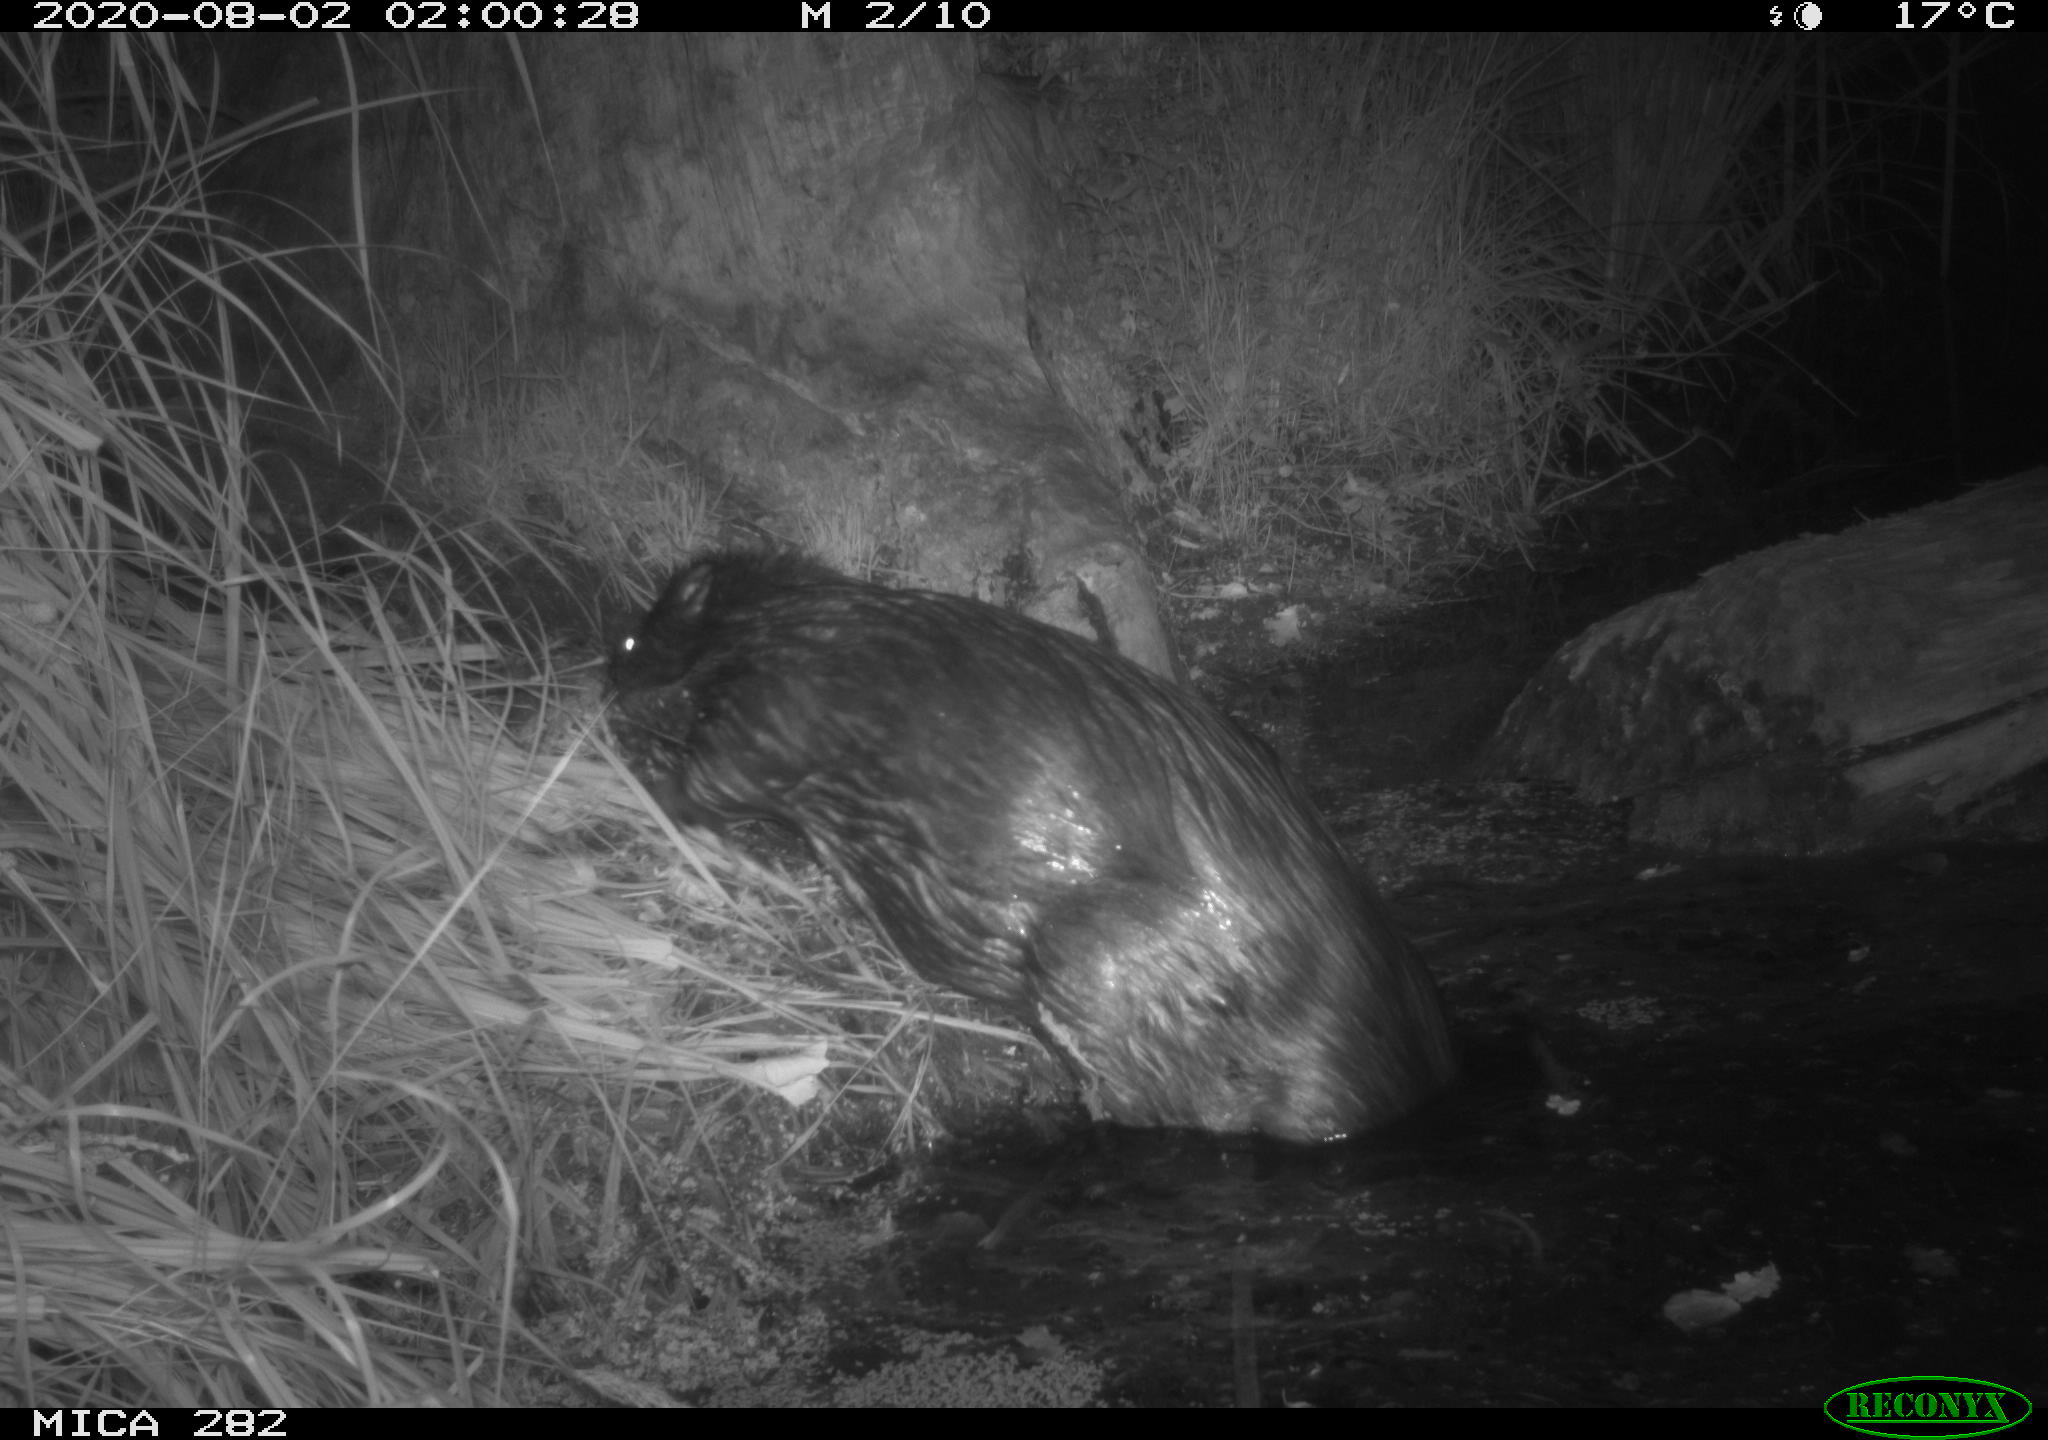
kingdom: Animalia
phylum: Chordata
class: Mammalia
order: Rodentia
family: Castoridae
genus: Castor
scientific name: Castor fiber
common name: Eurasian beaver
